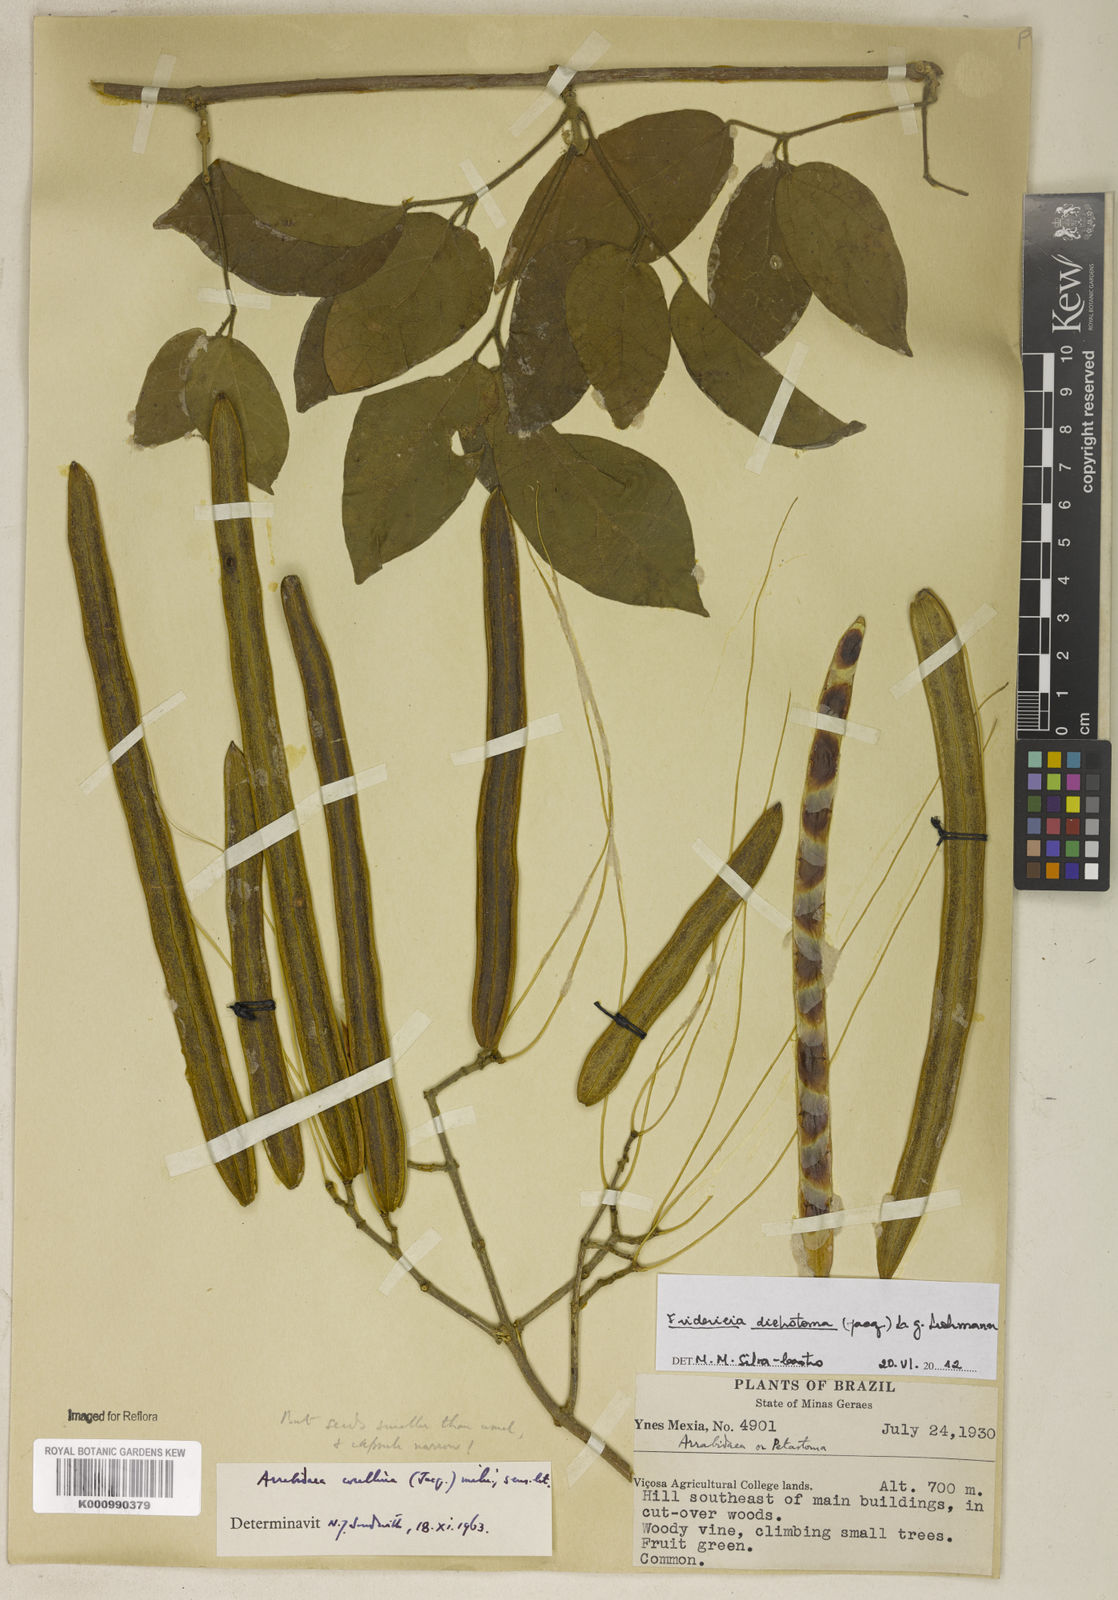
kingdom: Plantae
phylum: Tracheophyta
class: Magnoliopsida
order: Lamiales
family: Bignoniaceae
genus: Tanaecium
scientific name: Tanaecium dichotomum
